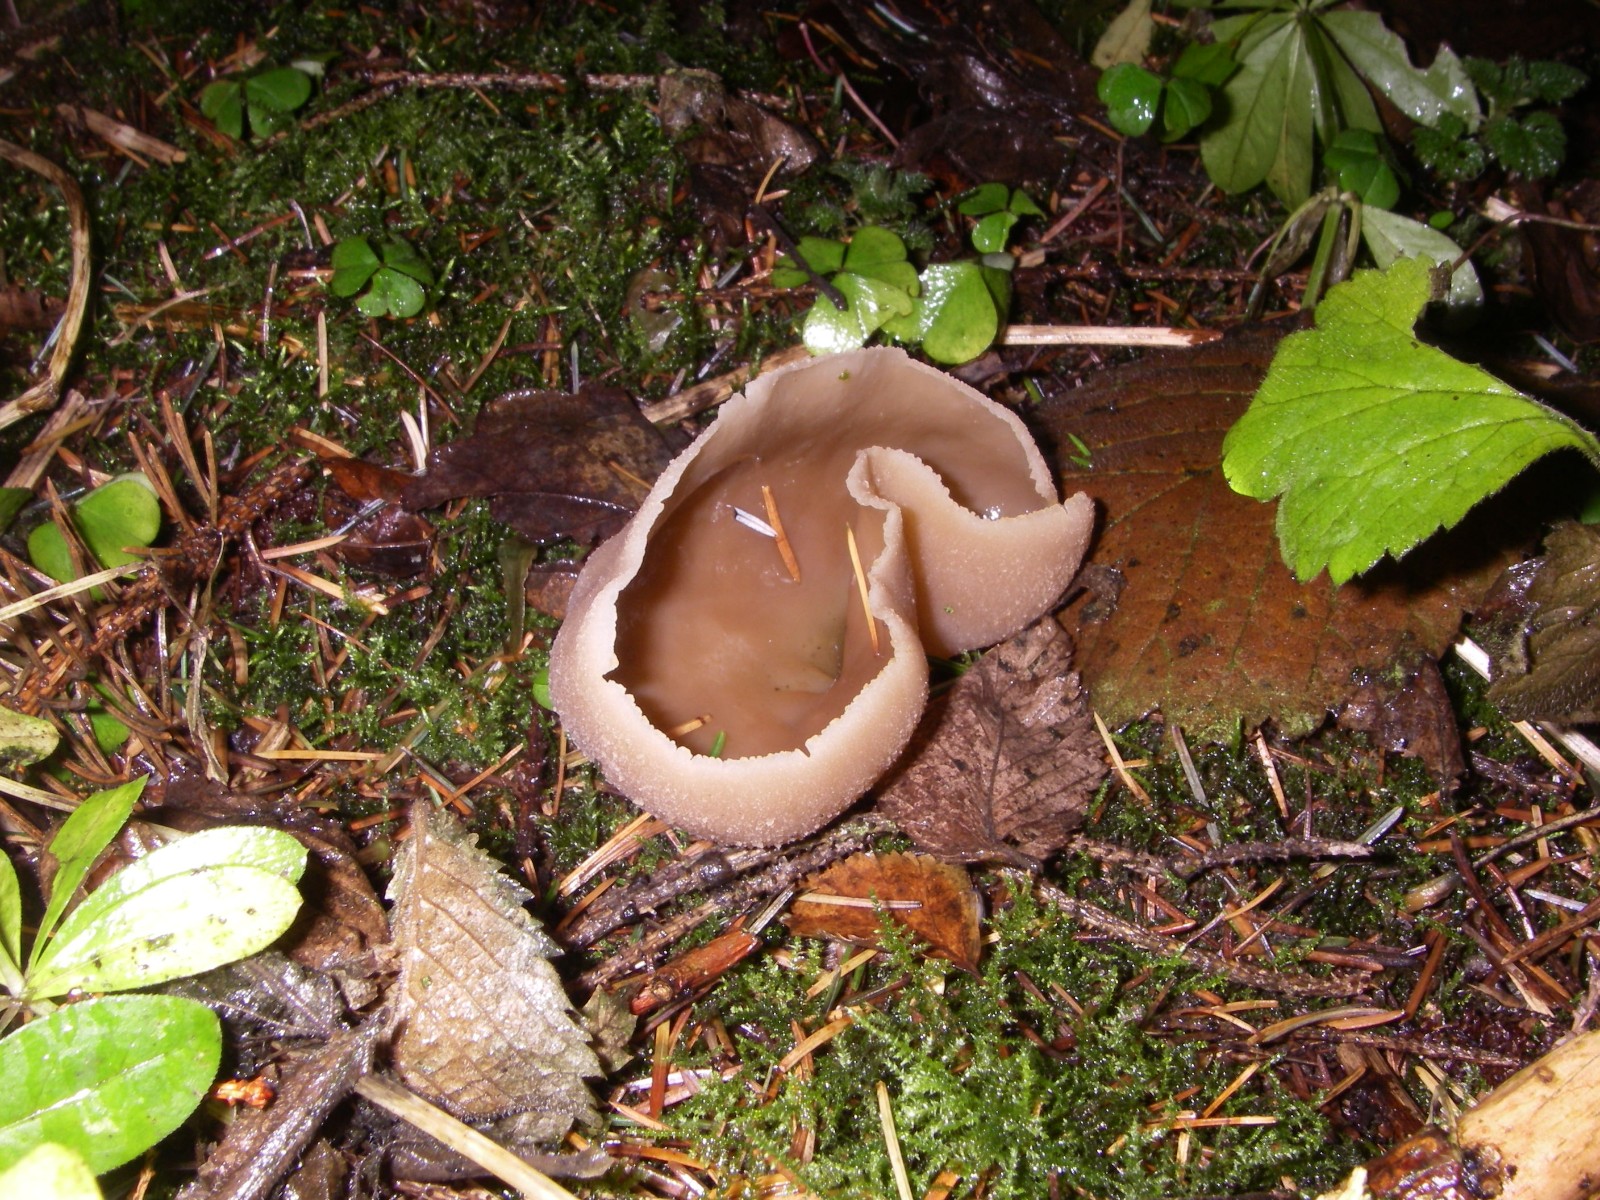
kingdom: Fungi
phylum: Ascomycota
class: Pezizomycetes
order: Pezizales
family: Pezizaceae
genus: Peziza
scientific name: Peziza
